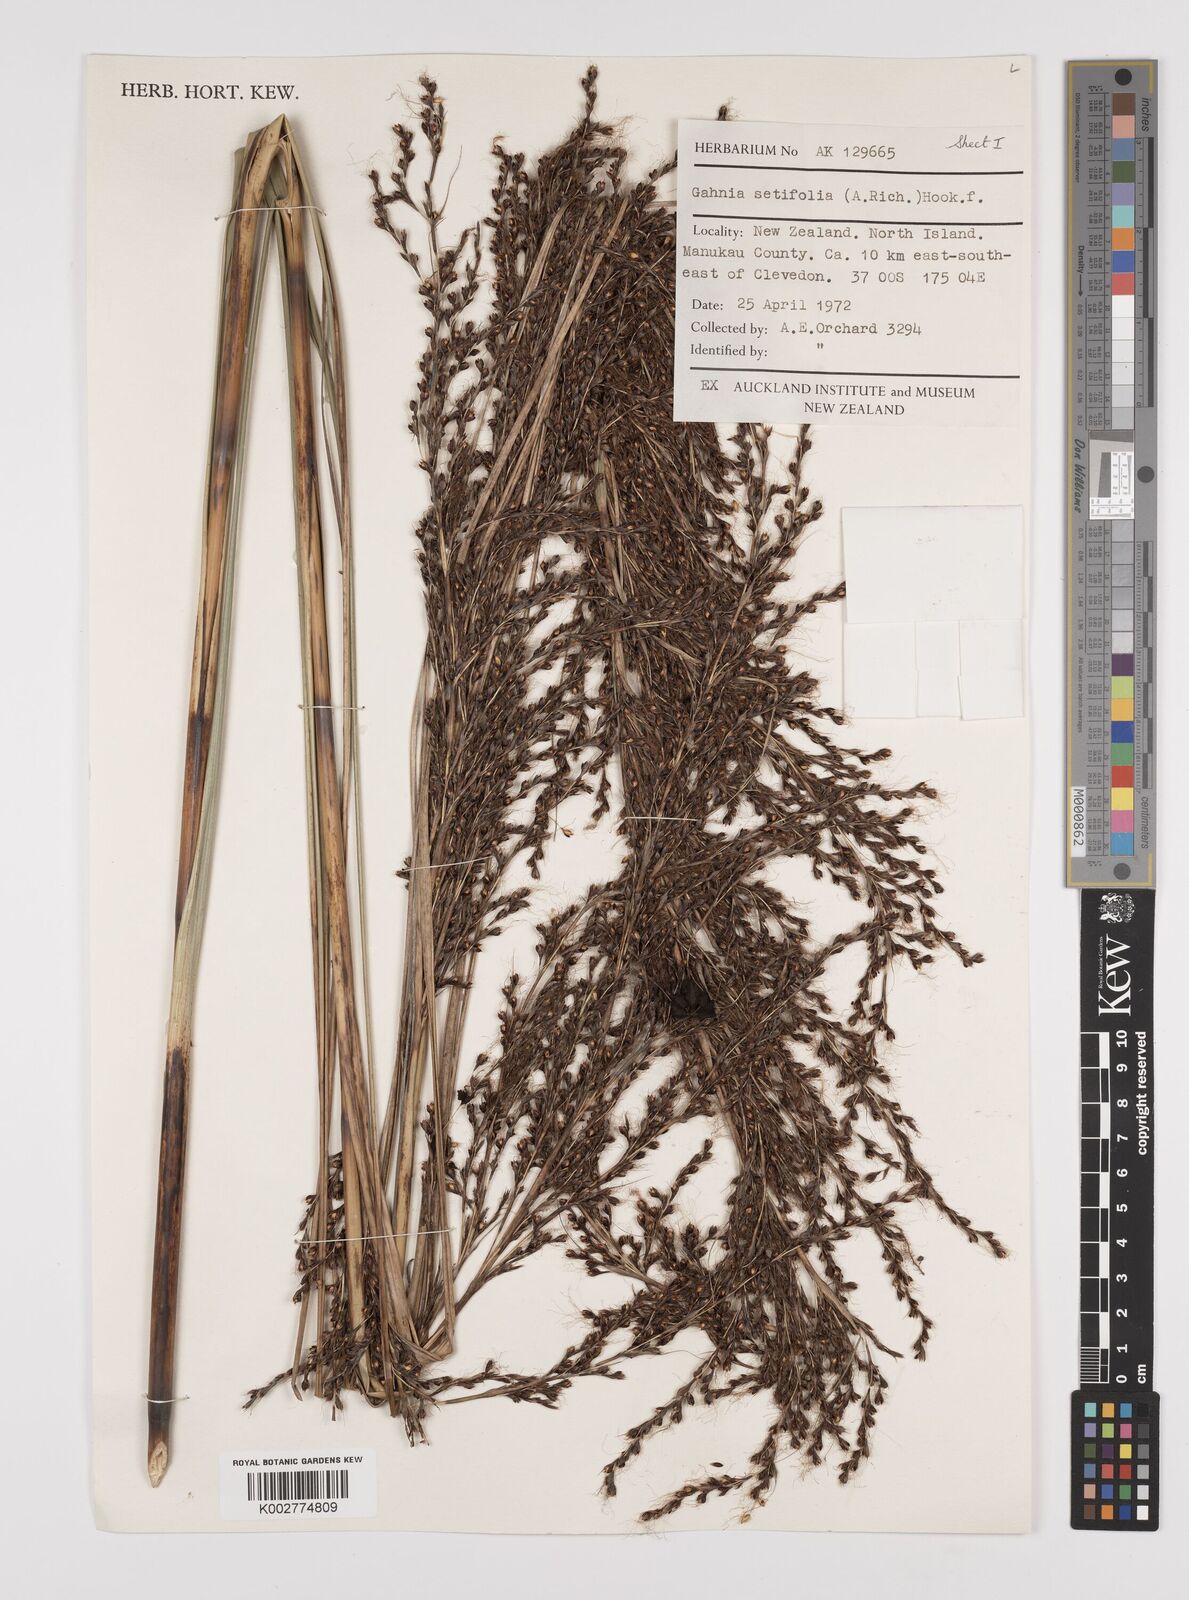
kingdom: Plantae
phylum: Tracheophyta
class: Liliopsida
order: Poales
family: Cyperaceae
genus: Gahnia
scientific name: Gahnia setifolia
